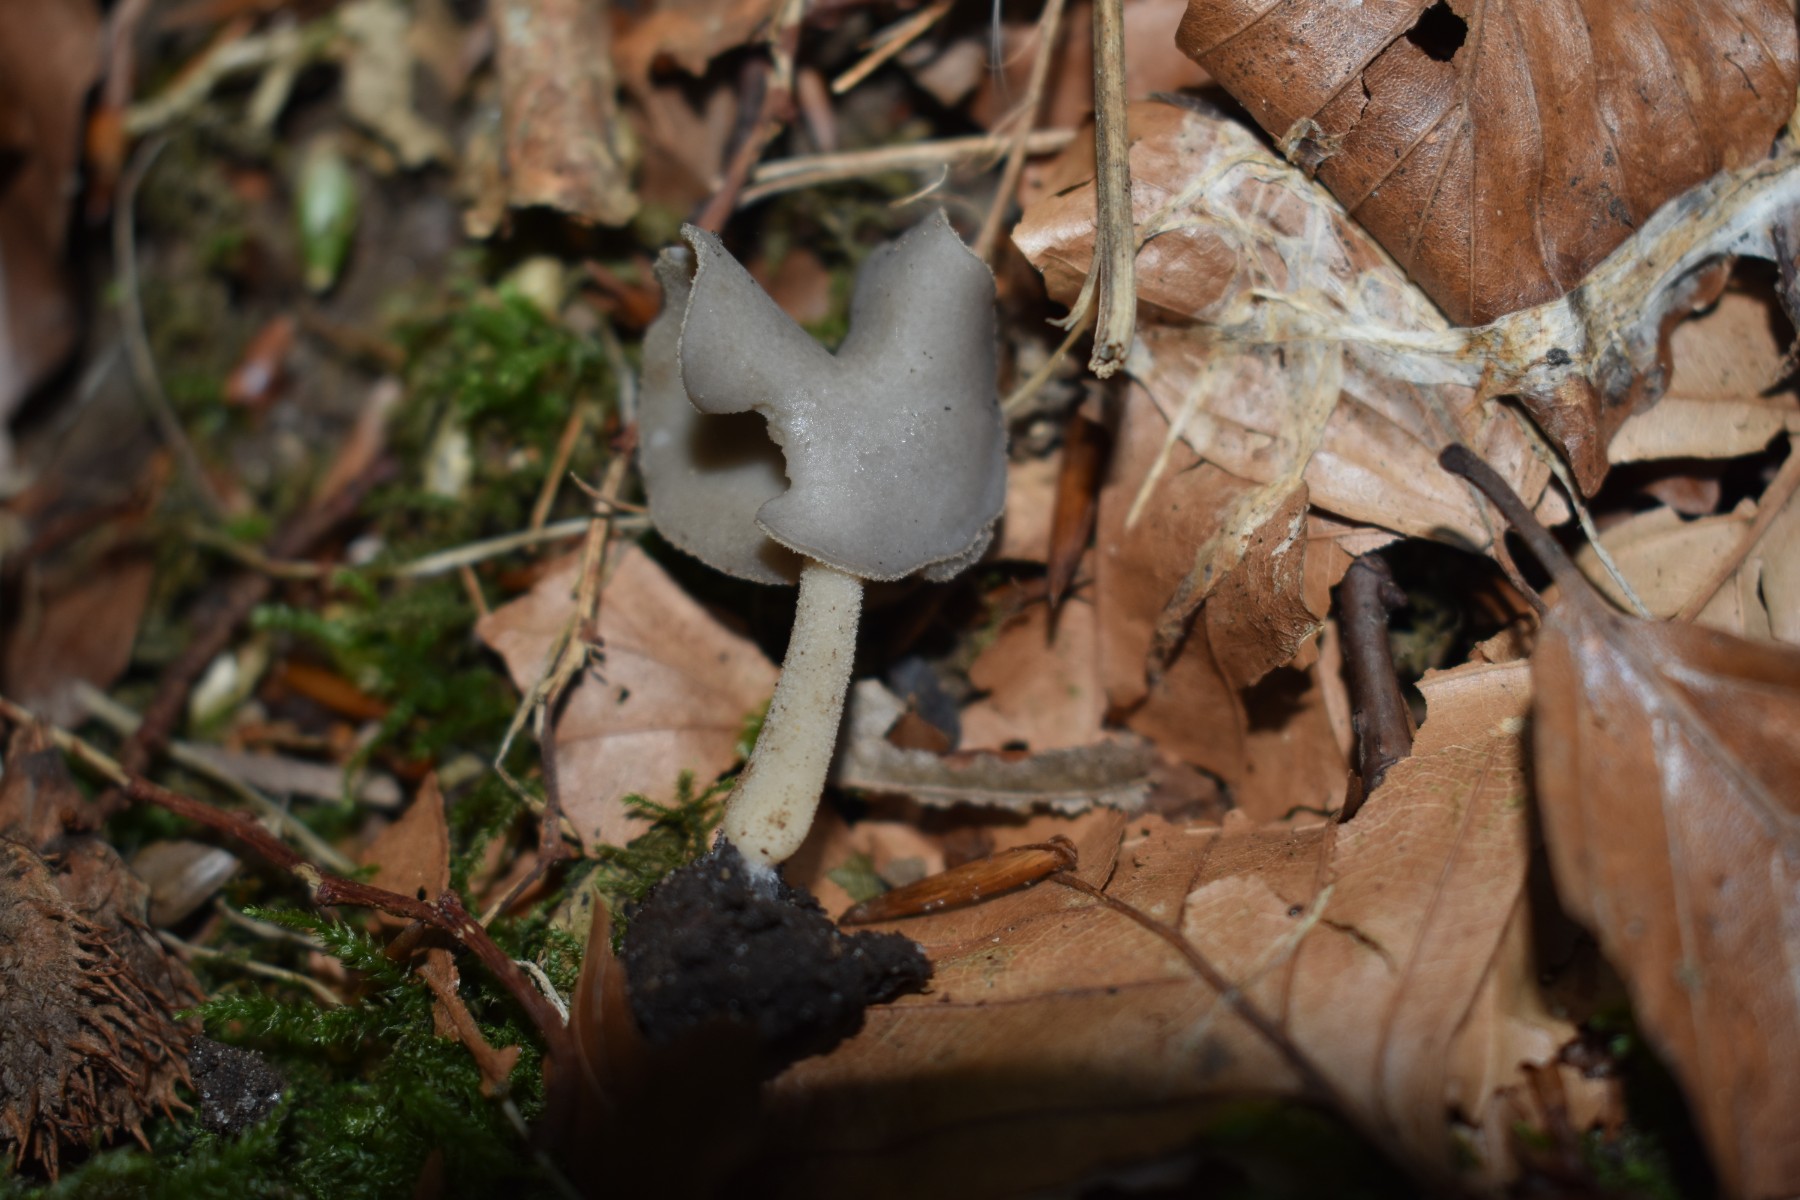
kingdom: Fungi
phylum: Ascomycota
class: Pezizomycetes
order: Pezizales
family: Helvellaceae
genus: Helvella
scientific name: Helvella elastica
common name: elastik-foldhat
